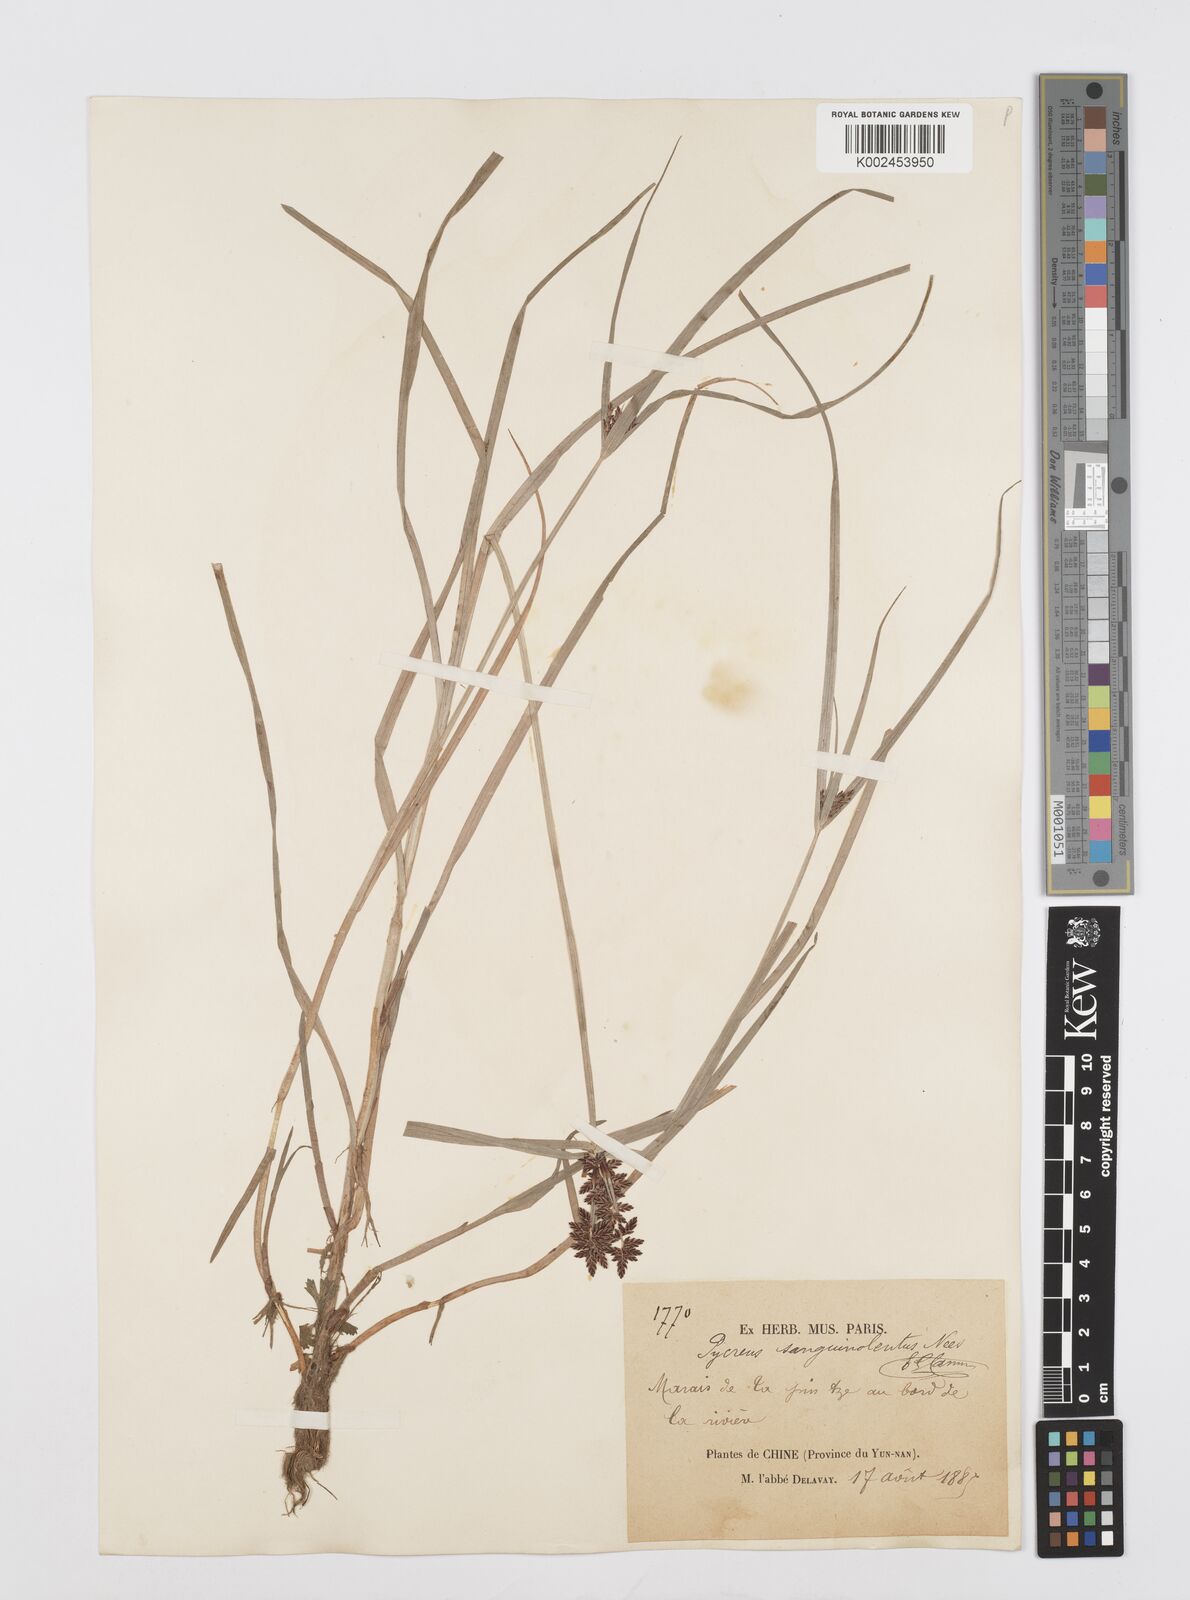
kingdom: Plantae
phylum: Tracheophyta
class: Liliopsida
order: Poales
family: Cyperaceae
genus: Cyperus
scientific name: Cyperus sanguinolentus
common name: Purpleglume flatsedge
